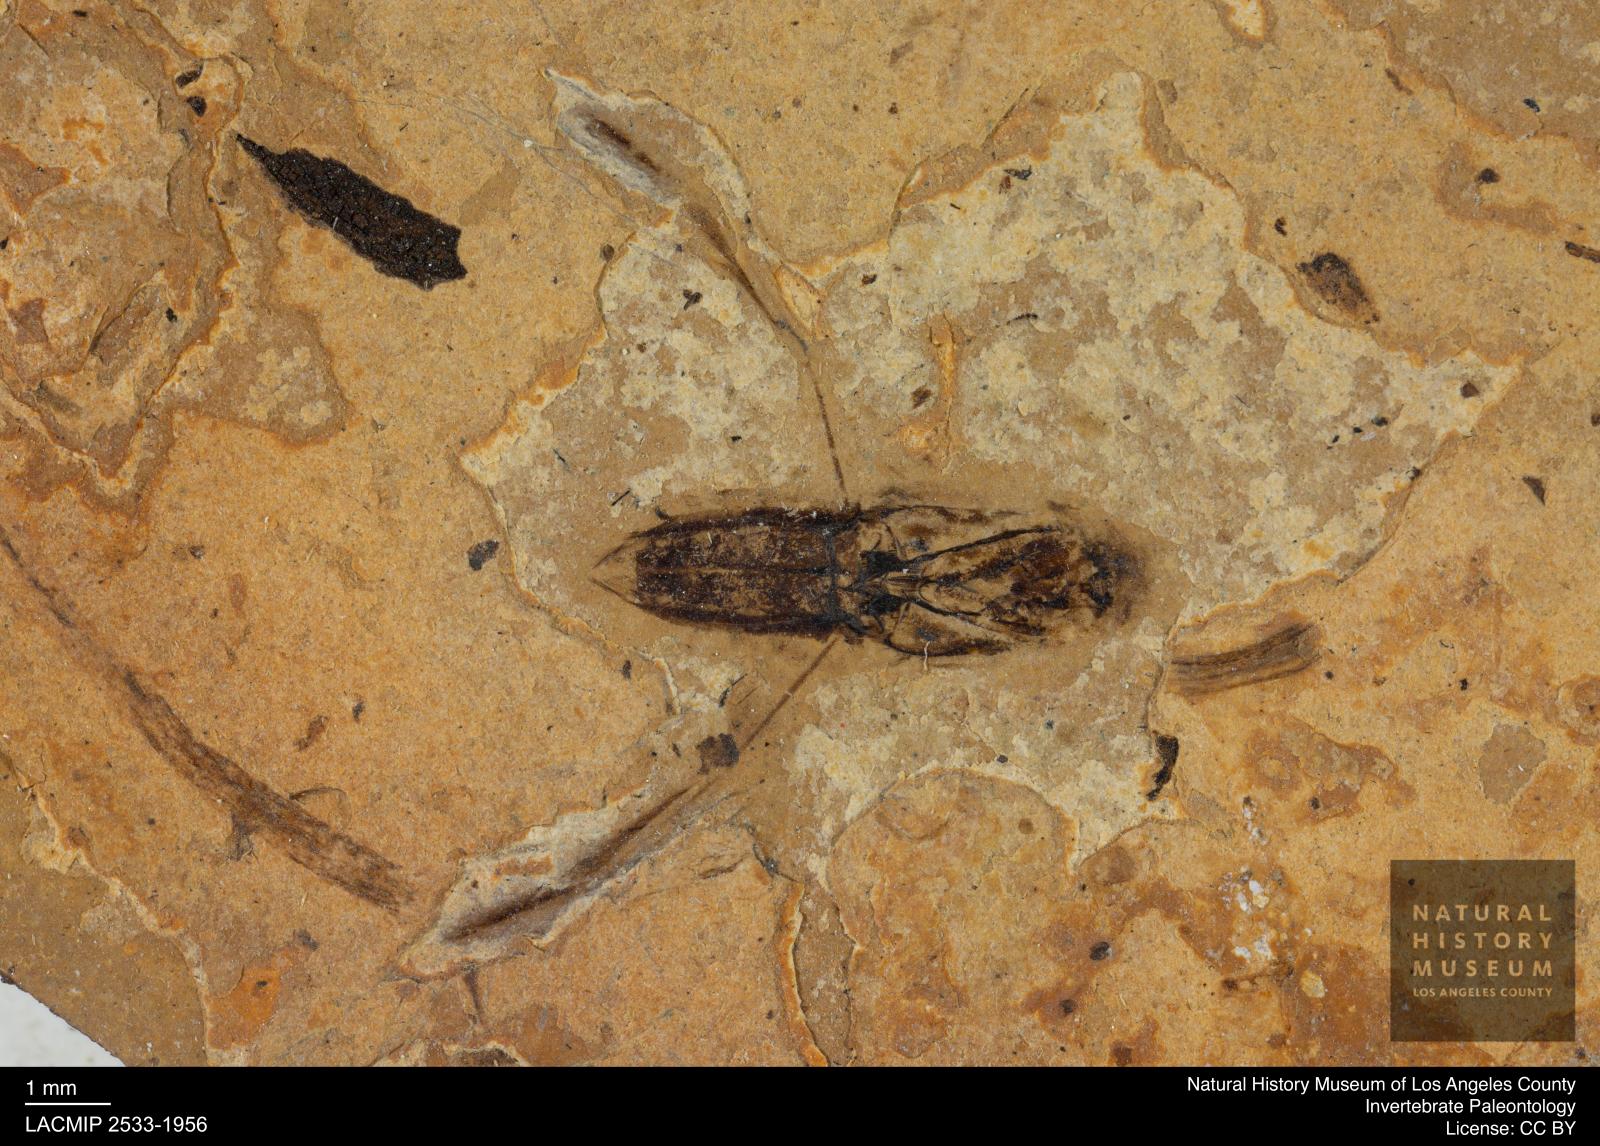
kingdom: Animalia
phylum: Arthropoda
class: Insecta
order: Hemiptera
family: Notonectidae
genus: Anisops
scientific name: Anisops Notonecta deichmuelleri
